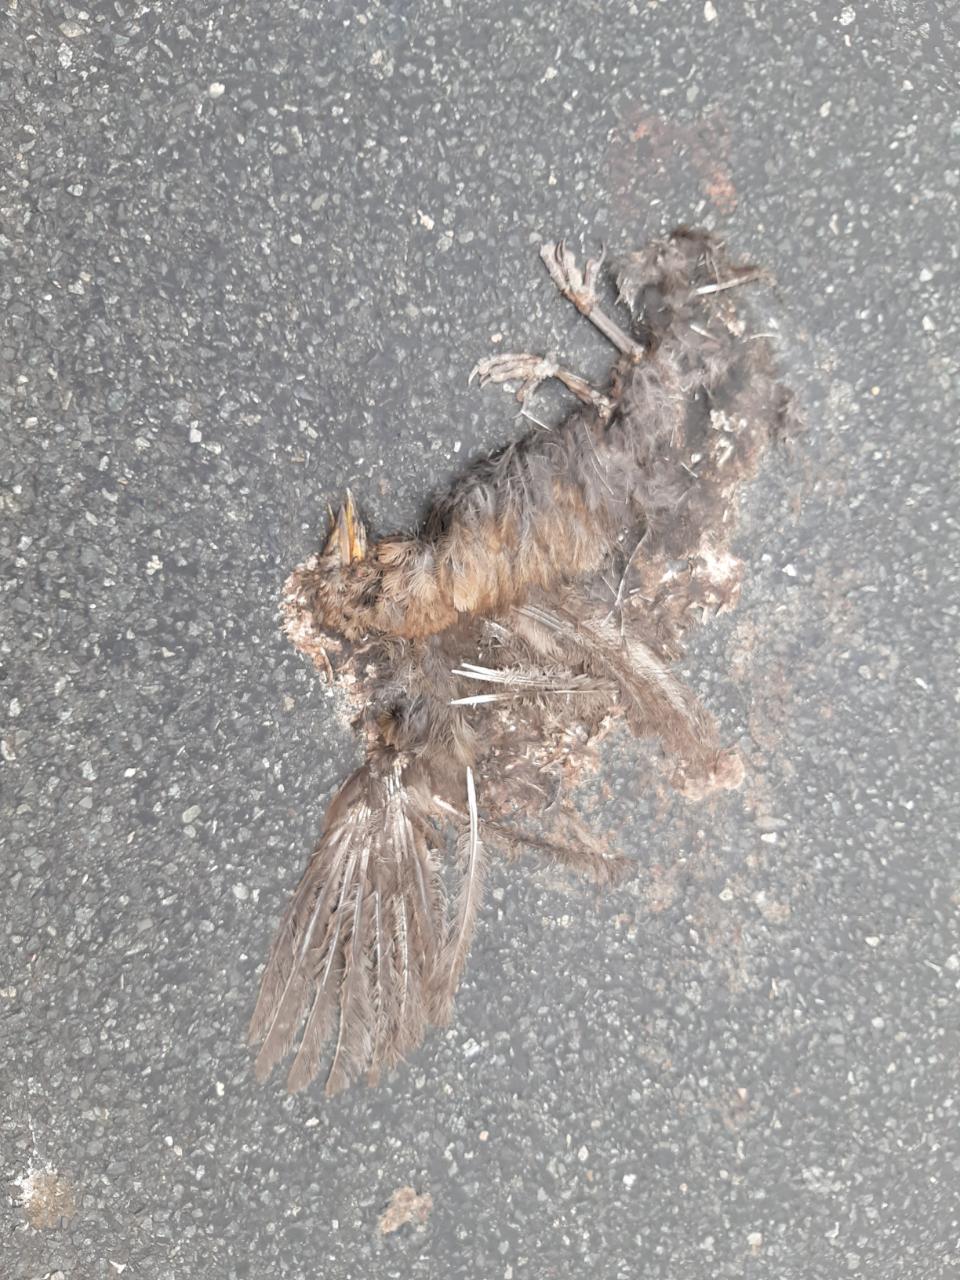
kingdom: Animalia
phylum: Chordata
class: Aves
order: Passeriformes
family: Turdidae
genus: Turdus
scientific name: Turdus merula
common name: Common blackbird
